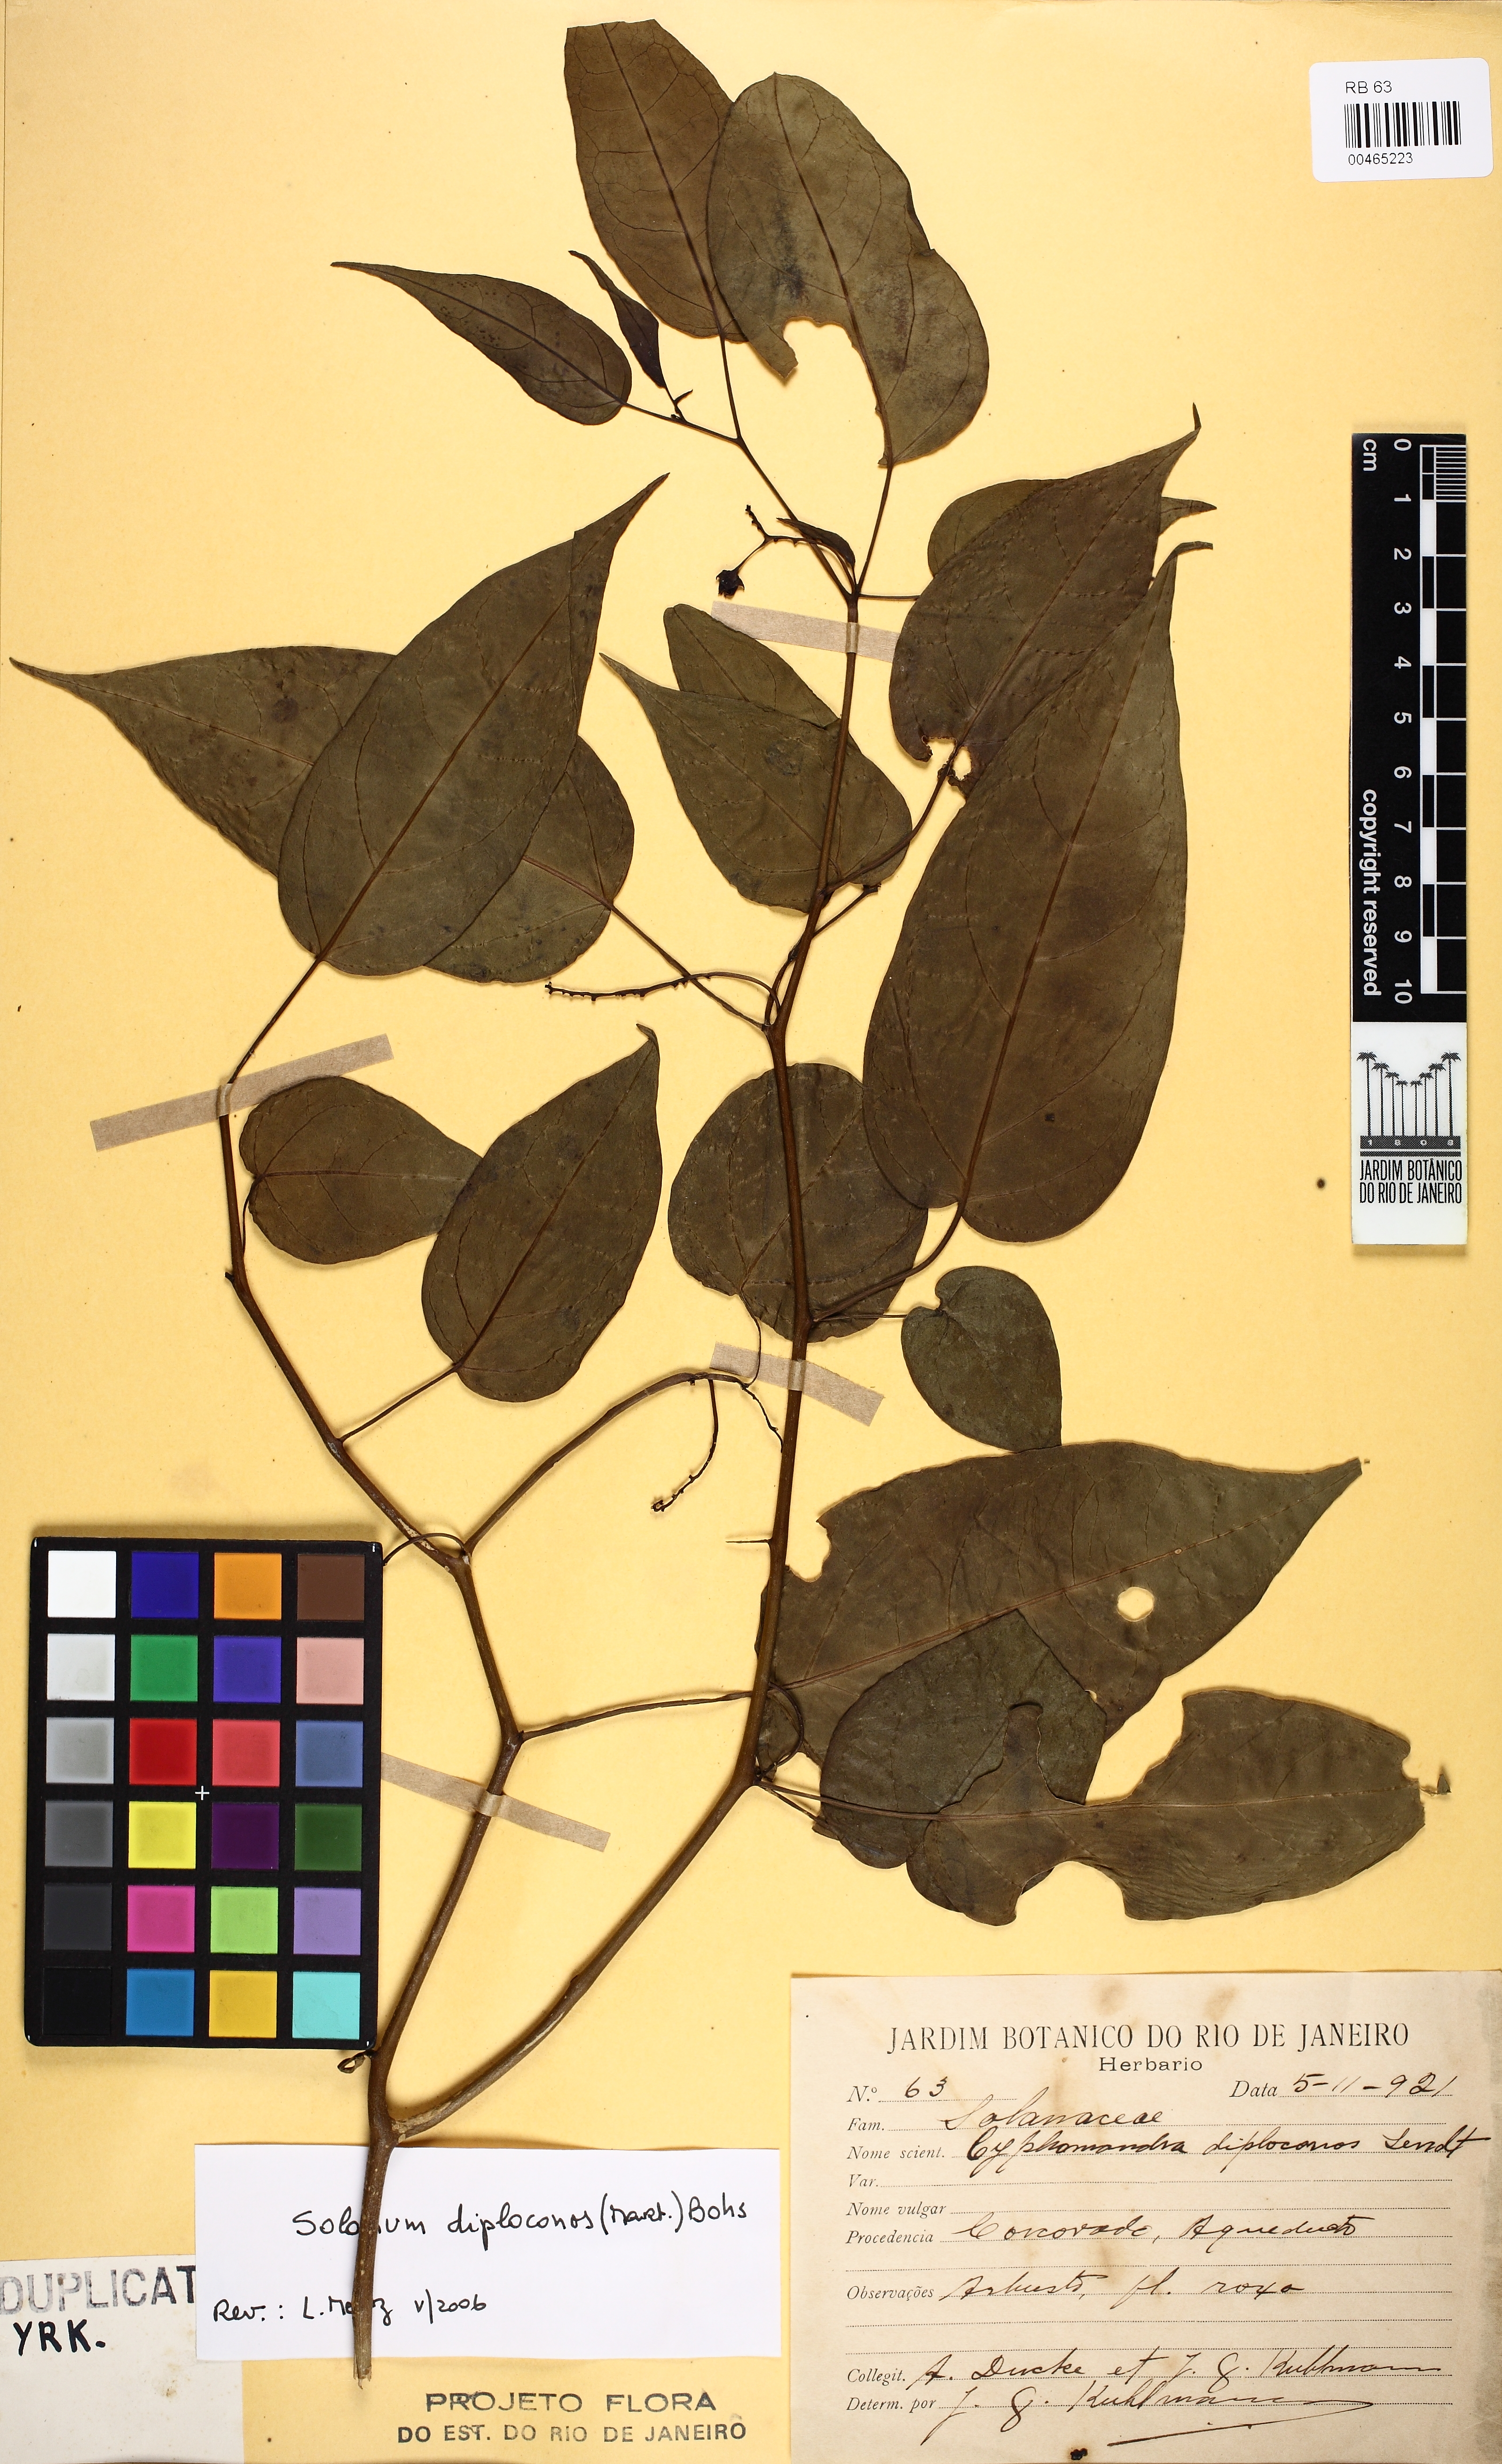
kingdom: Plantae
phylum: Tracheophyta
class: Magnoliopsida
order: Solanales
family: Solanaceae
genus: Solanum
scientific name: Solanum diploconos
